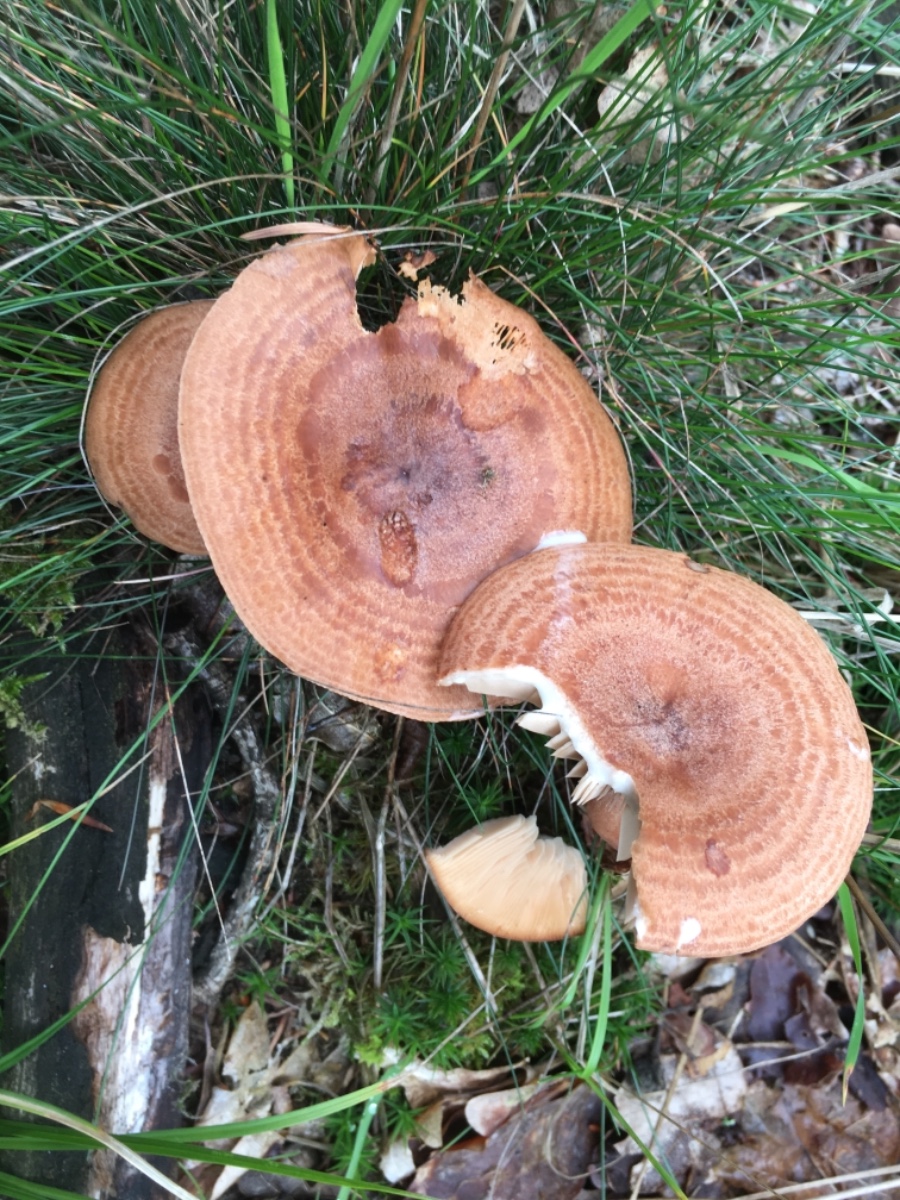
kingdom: Fungi
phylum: Basidiomycota
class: Agaricomycetes
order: Russulales
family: Russulaceae
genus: Lactarius
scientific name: Lactarius quietus
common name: ege-mælkehat
